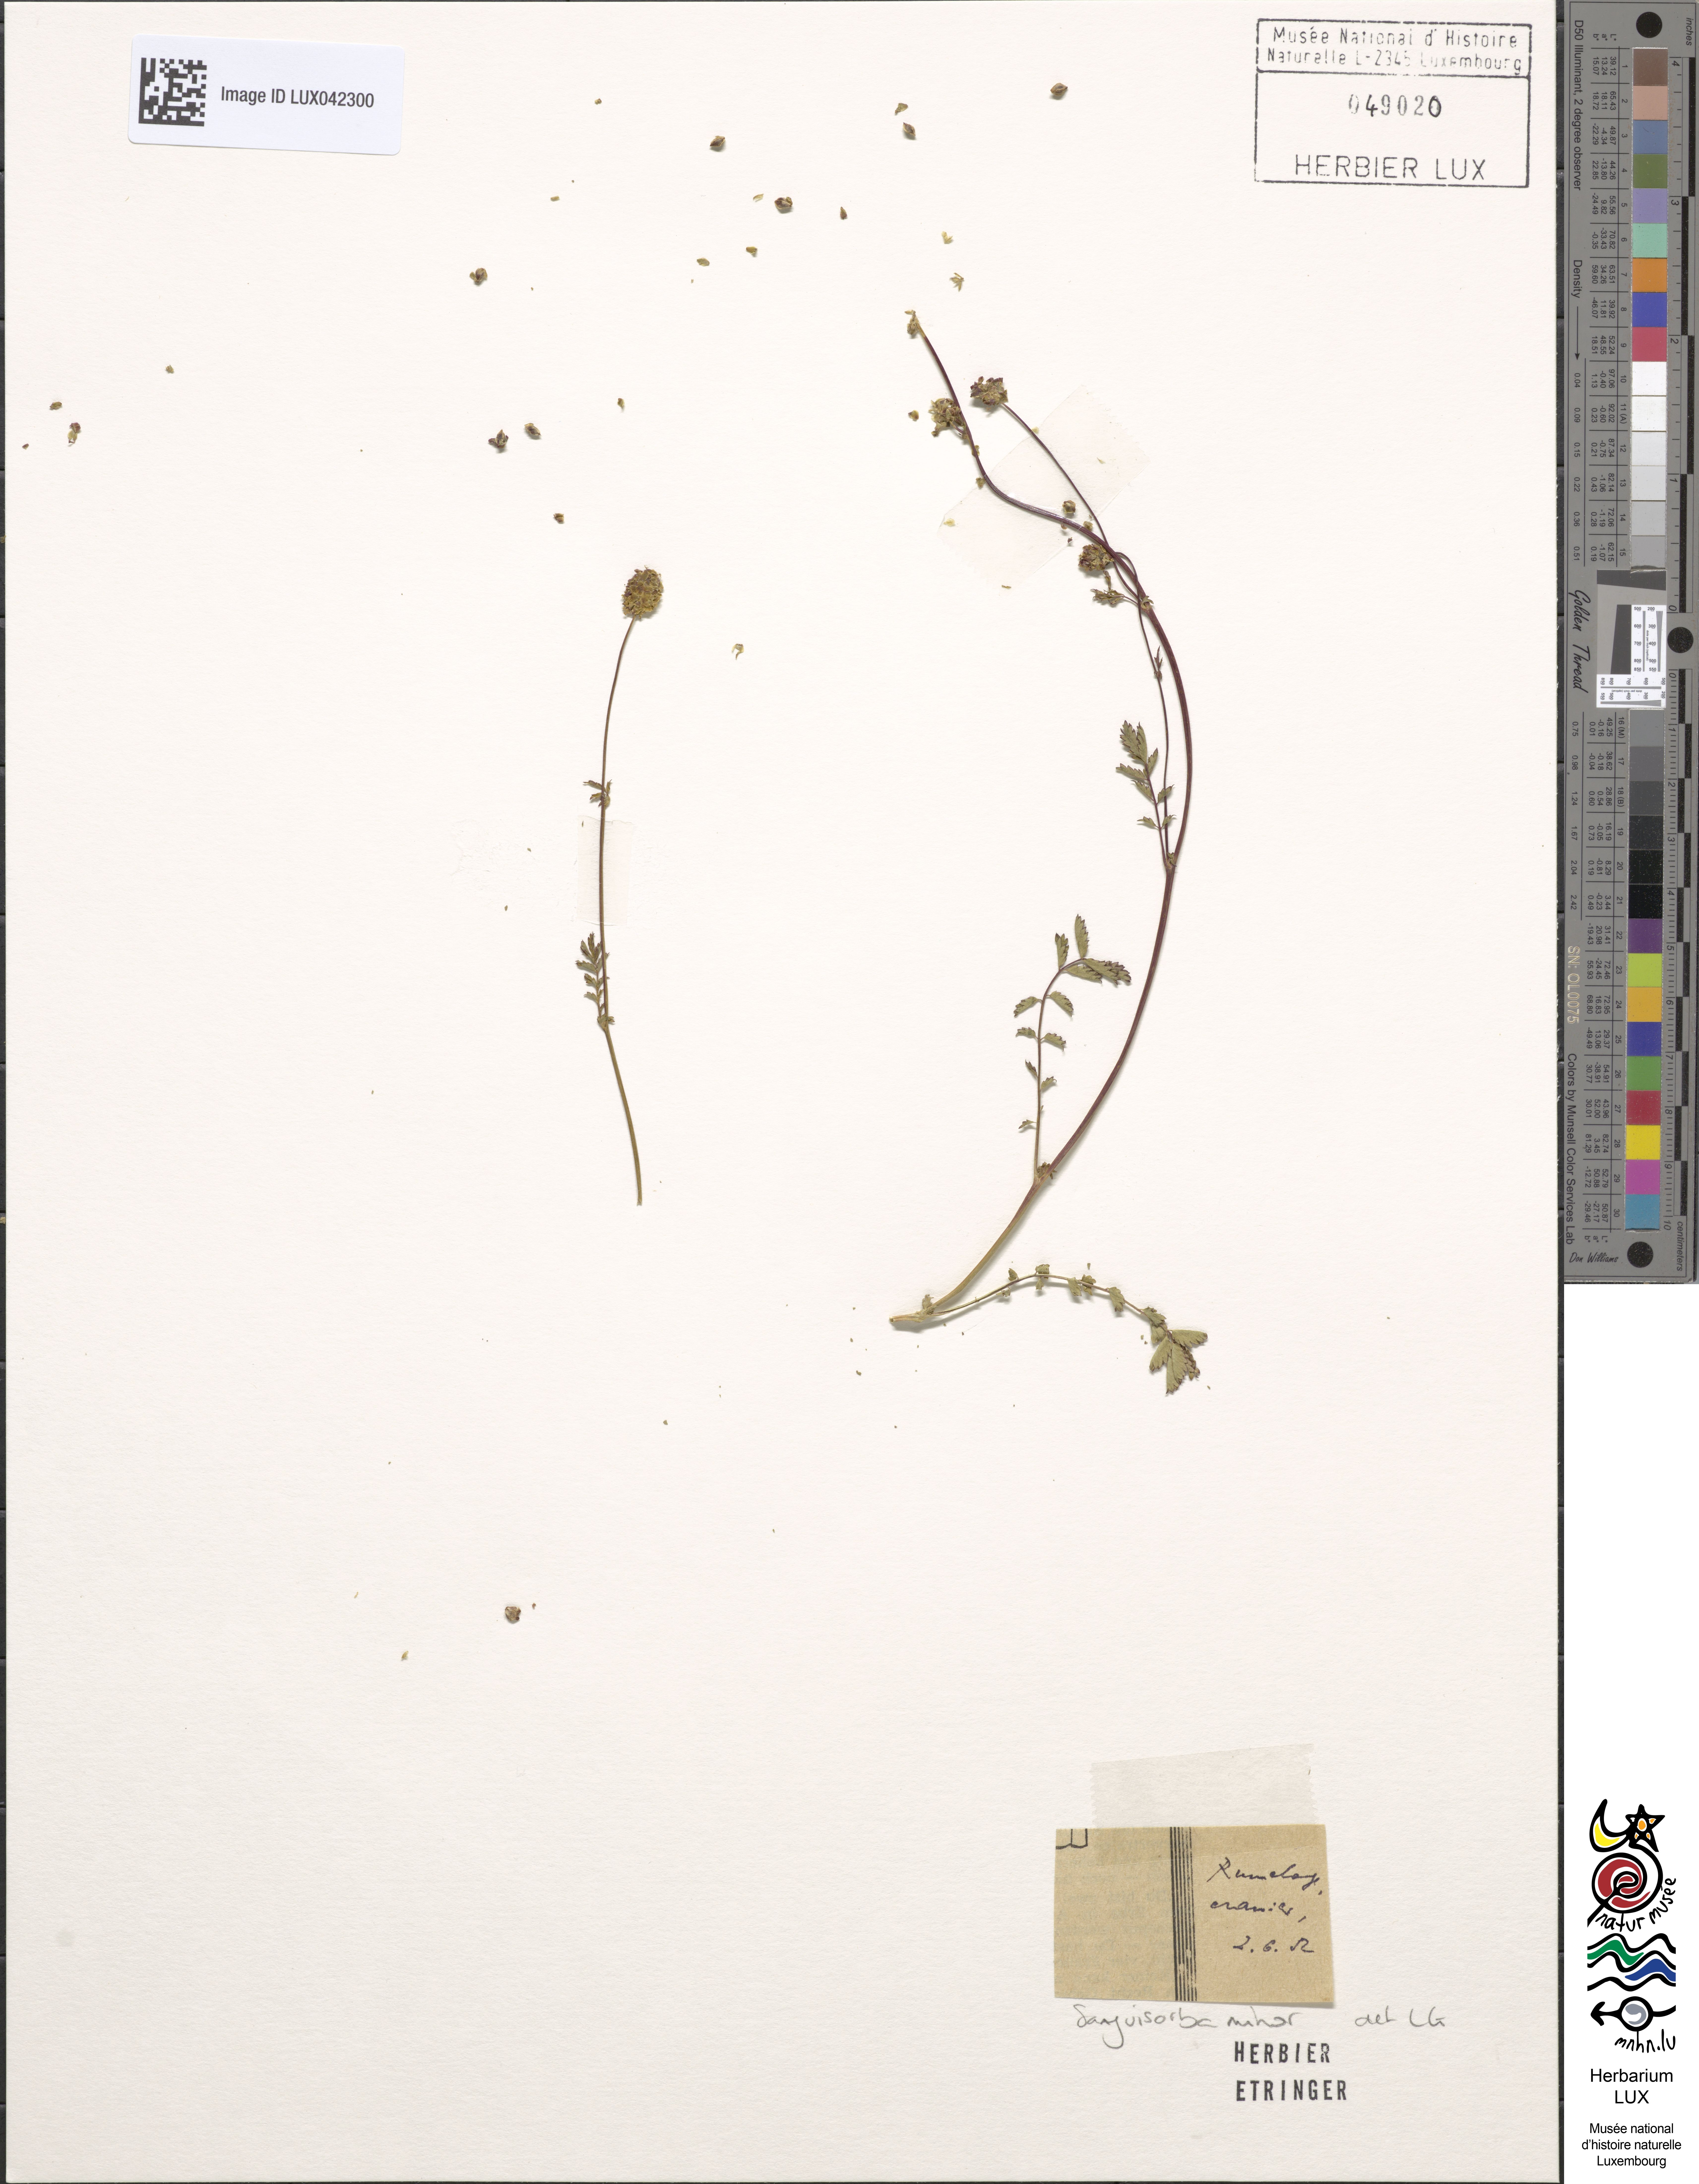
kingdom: Plantae
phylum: Tracheophyta
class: Magnoliopsida
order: Rosales
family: Rosaceae
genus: Poterium
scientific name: Poterium sanguisorba
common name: Salad burnet
